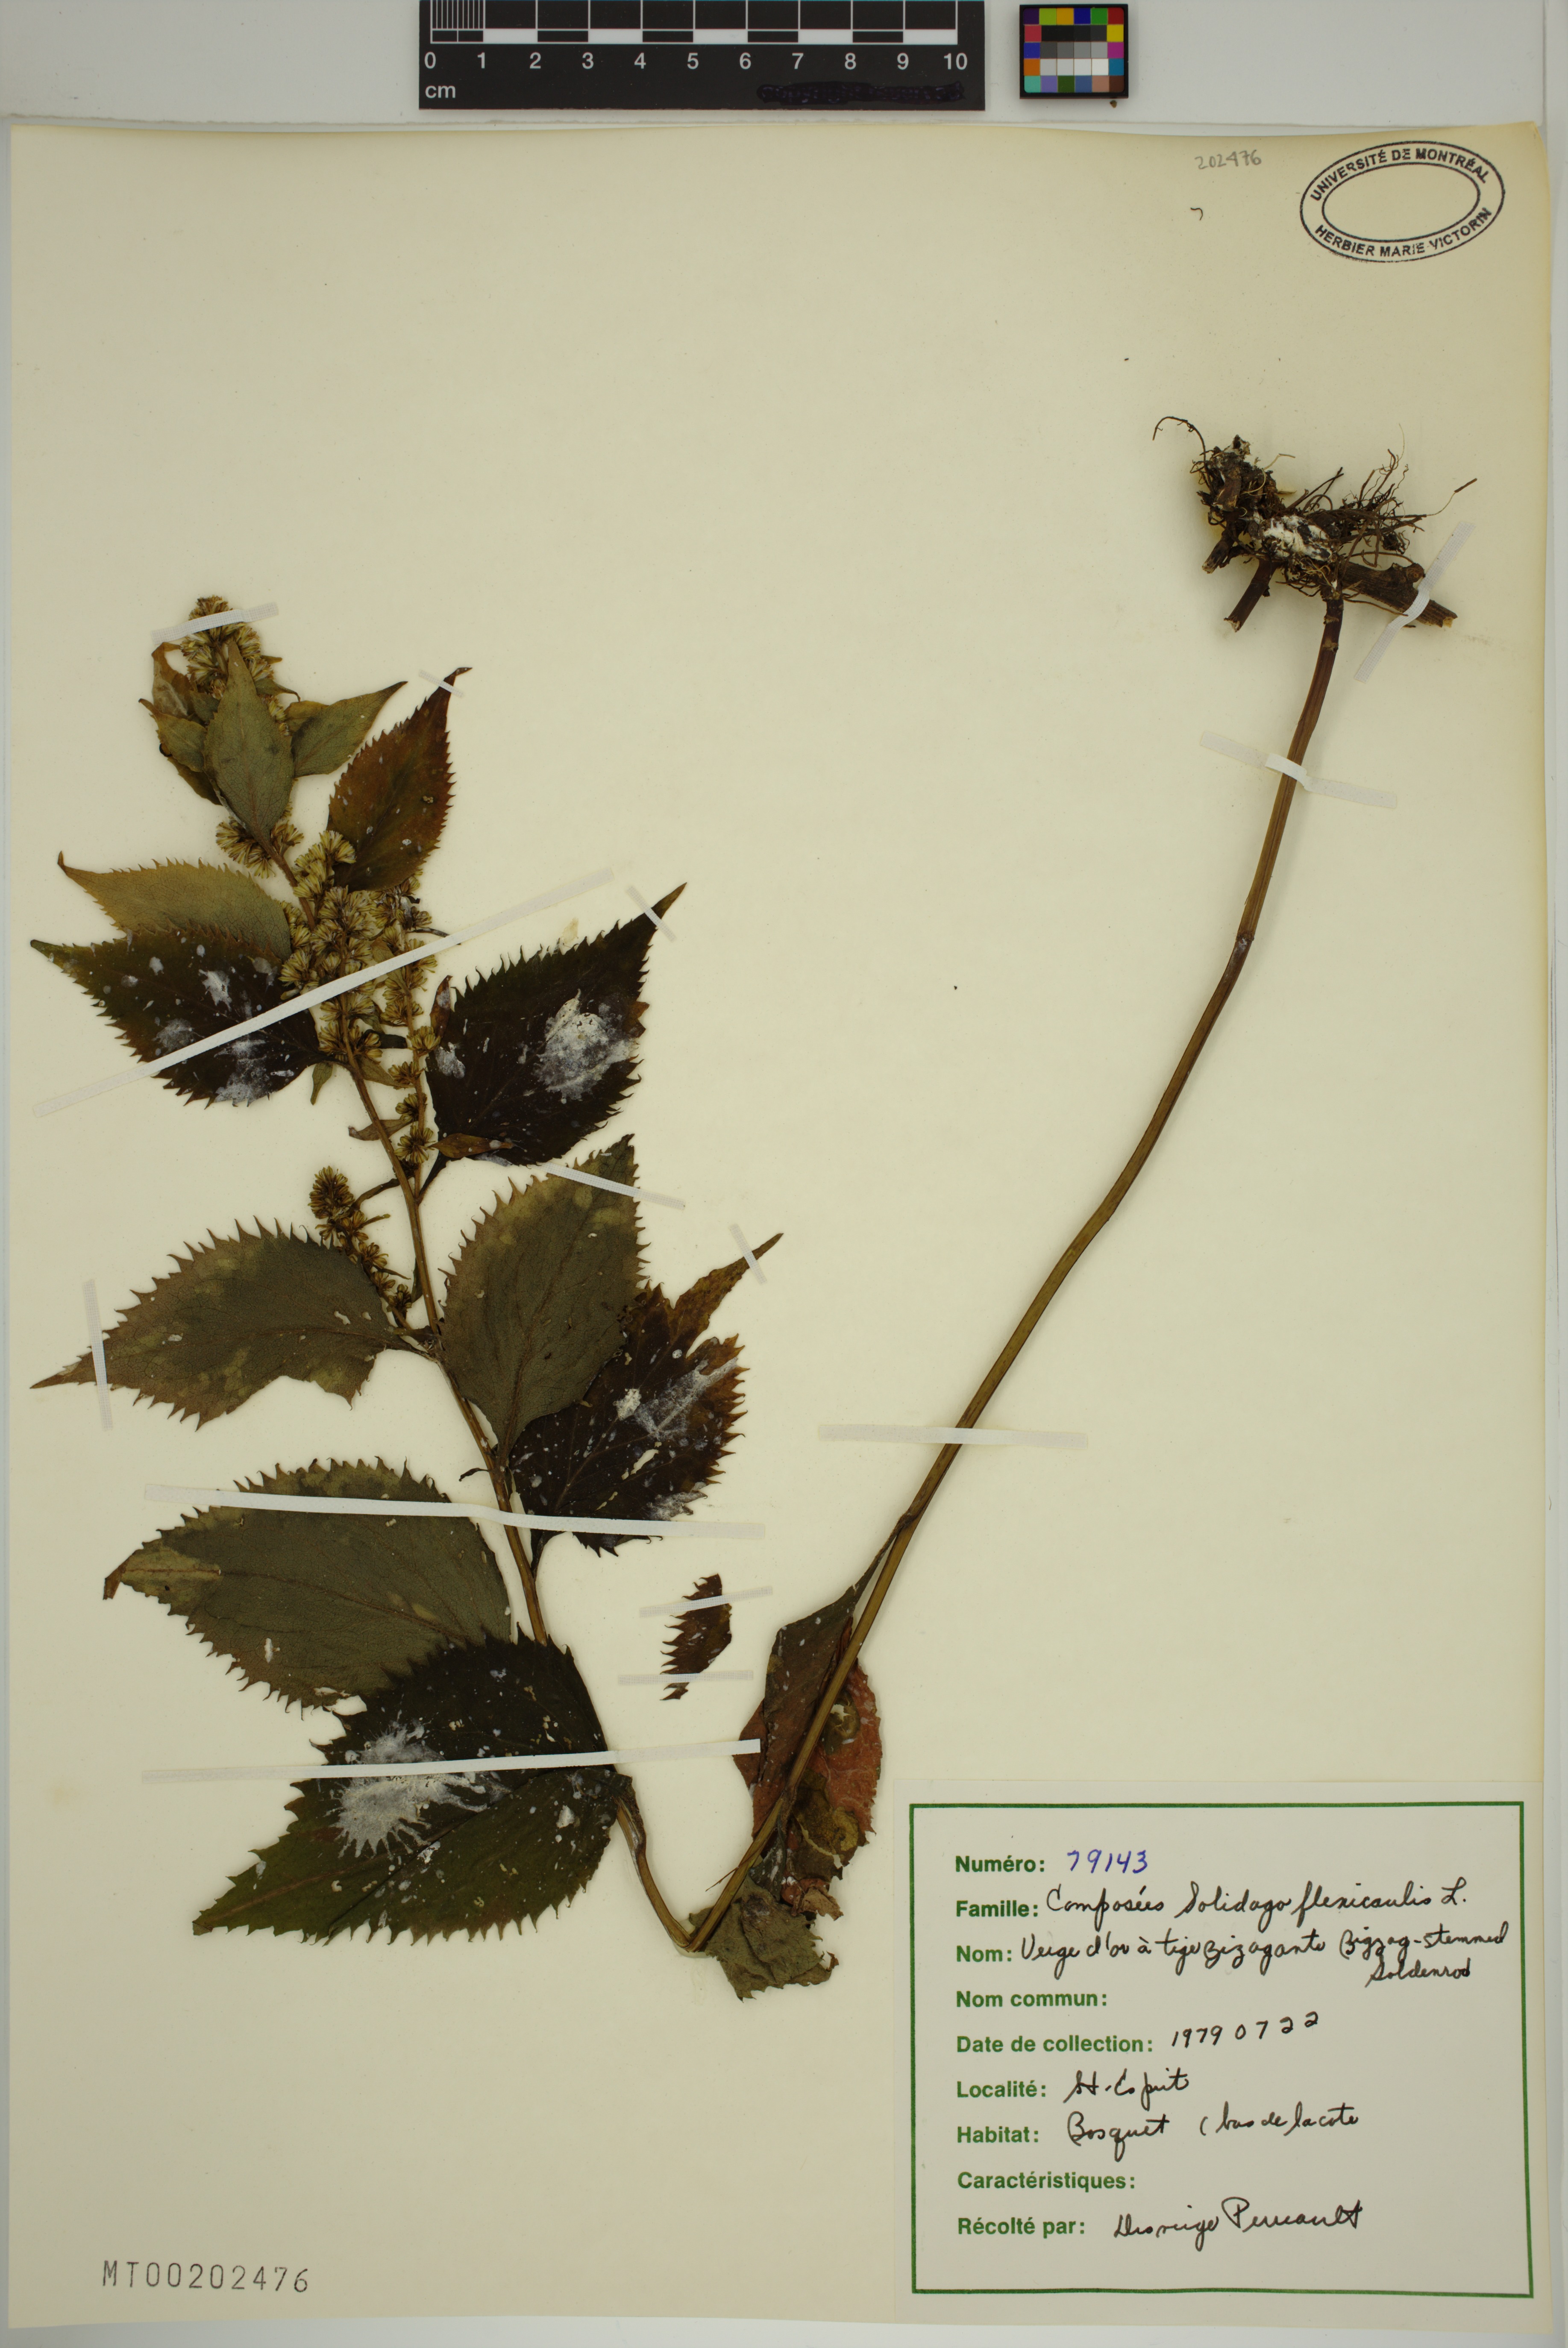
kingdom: Plantae
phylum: Tracheophyta
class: Magnoliopsida
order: Asterales
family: Asteraceae
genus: Solidago
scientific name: Solidago flexicaulis
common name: Zig-zag goldenrod
